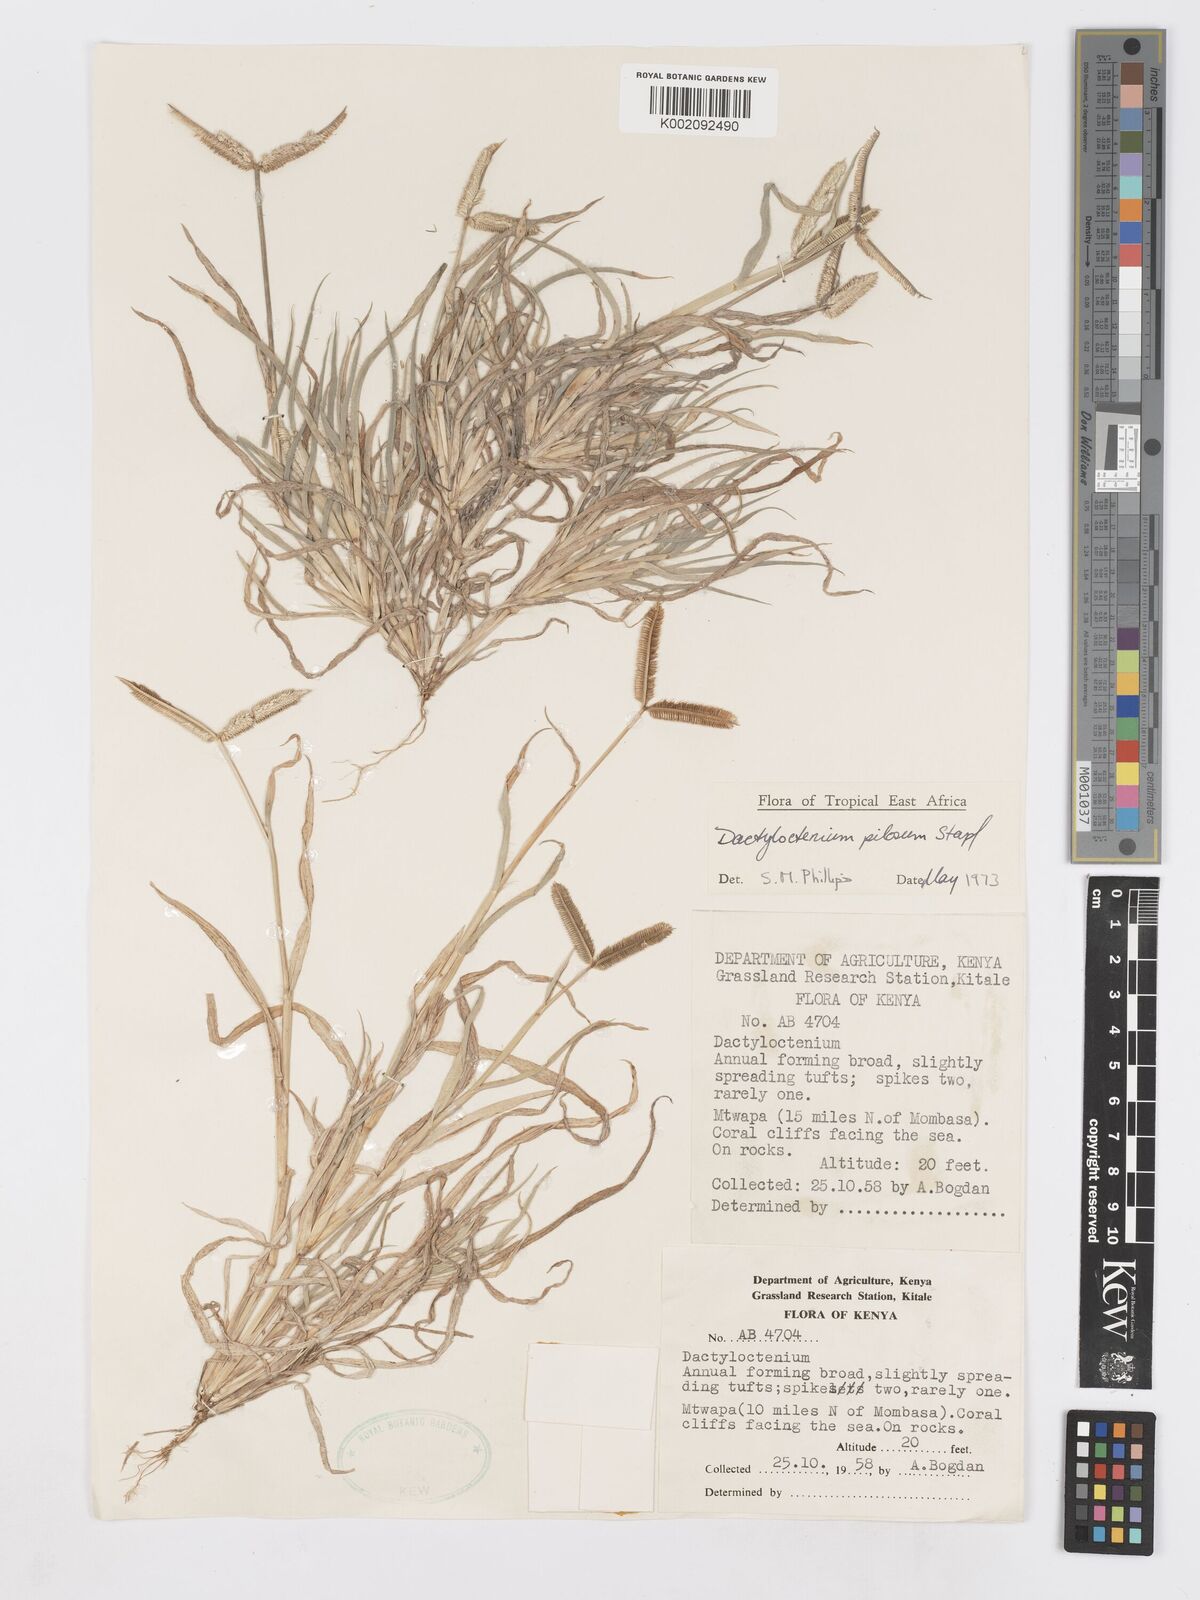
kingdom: Plantae
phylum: Tracheophyta
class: Liliopsida
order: Poales
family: Poaceae
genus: Dactyloctenium
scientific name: Dactyloctenium pilosum
